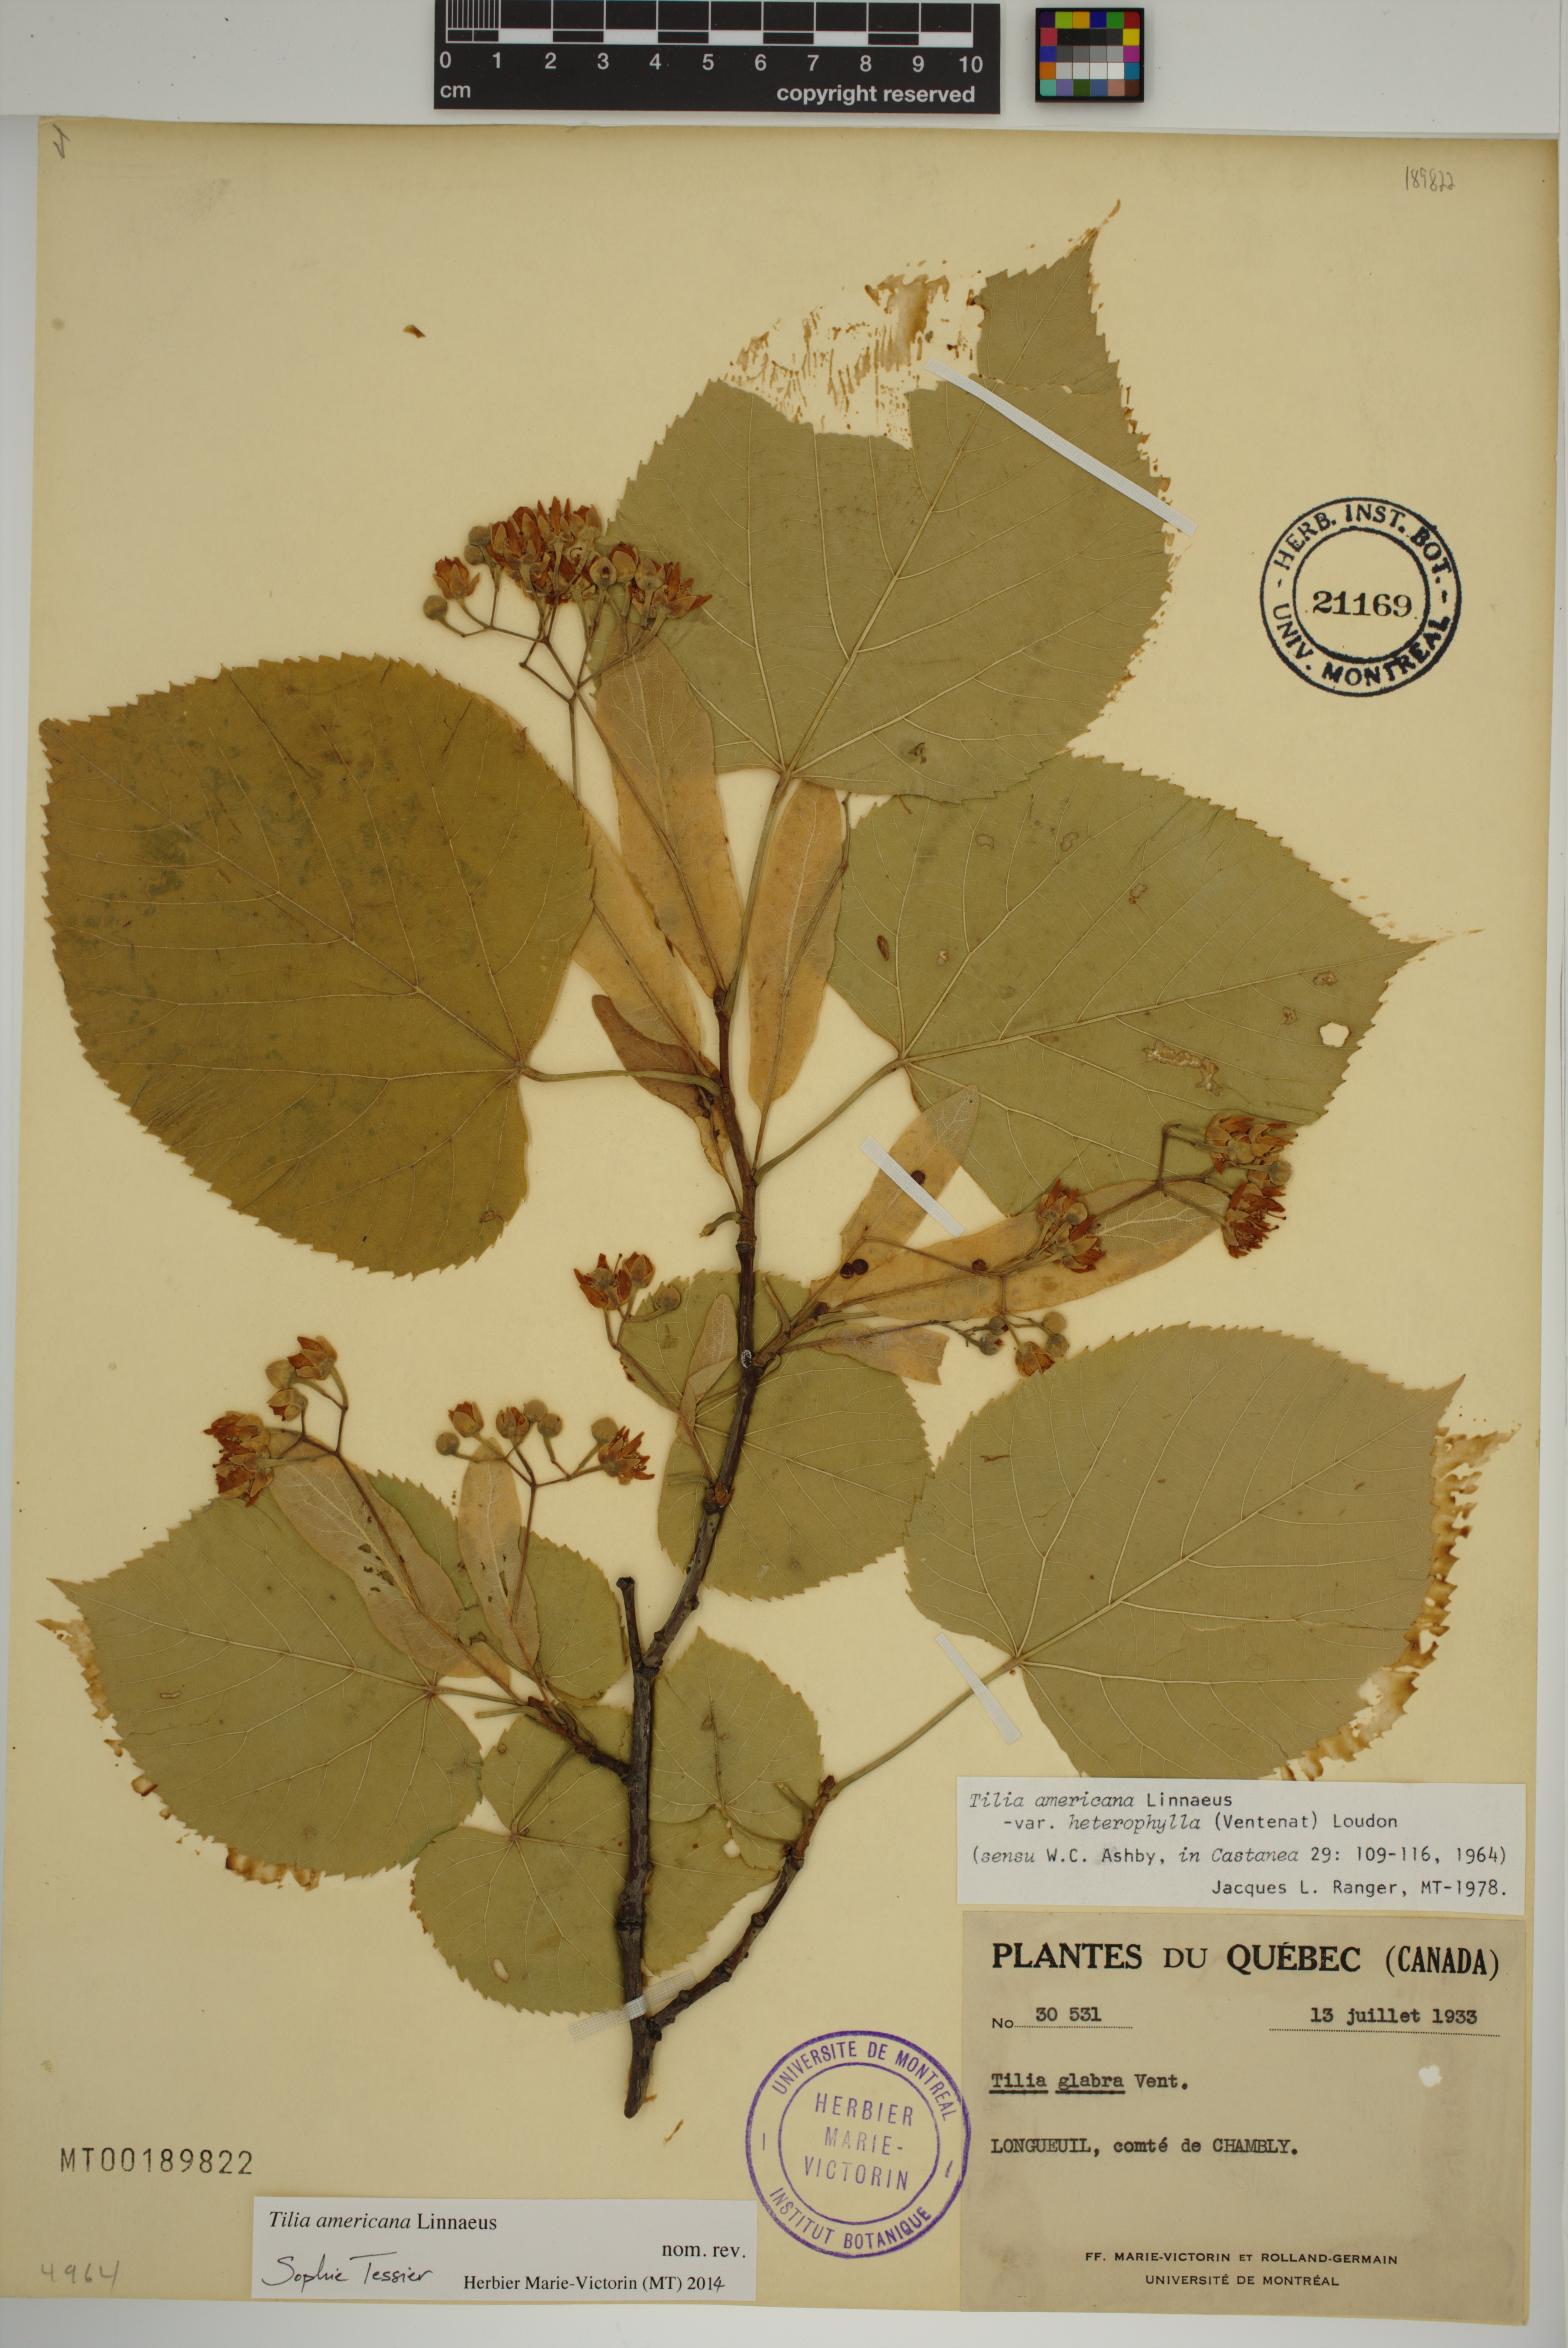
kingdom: Plantae
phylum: Tracheophyta
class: Magnoliopsida
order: Malvales
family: Malvaceae
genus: Tilia
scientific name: Tilia americana
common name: Basswood
